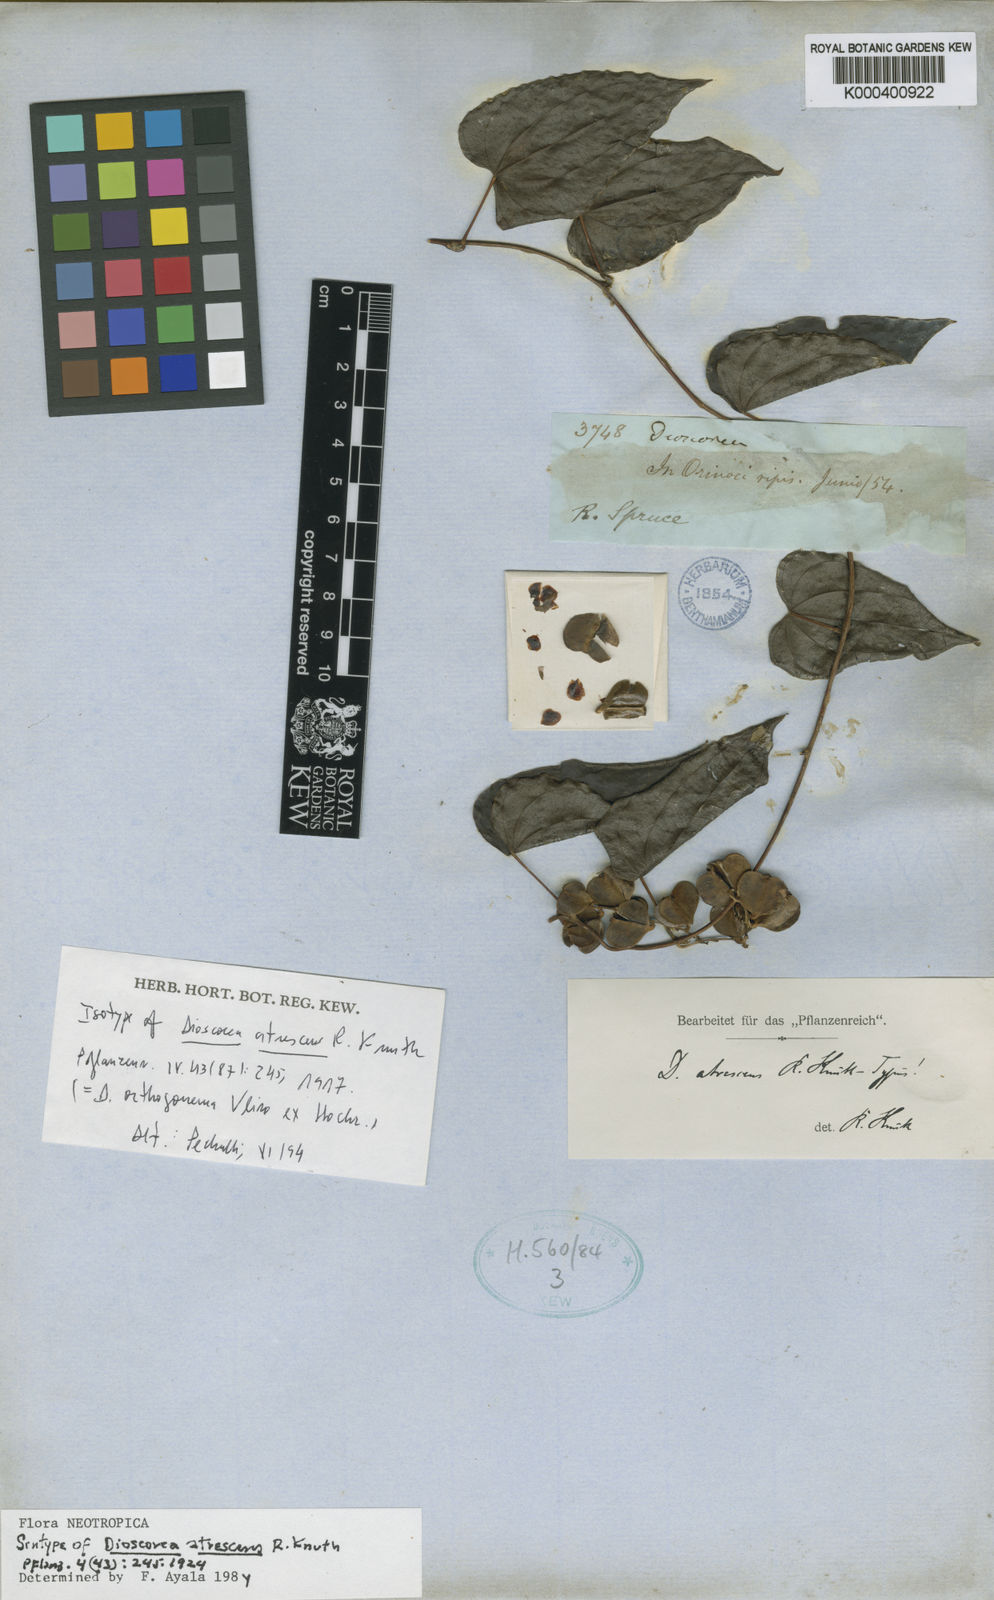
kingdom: Plantae
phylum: Tracheophyta
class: Liliopsida
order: Dioscoreales
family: Dioscoreaceae
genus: Dioscorea
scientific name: Dioscorea atrescens
